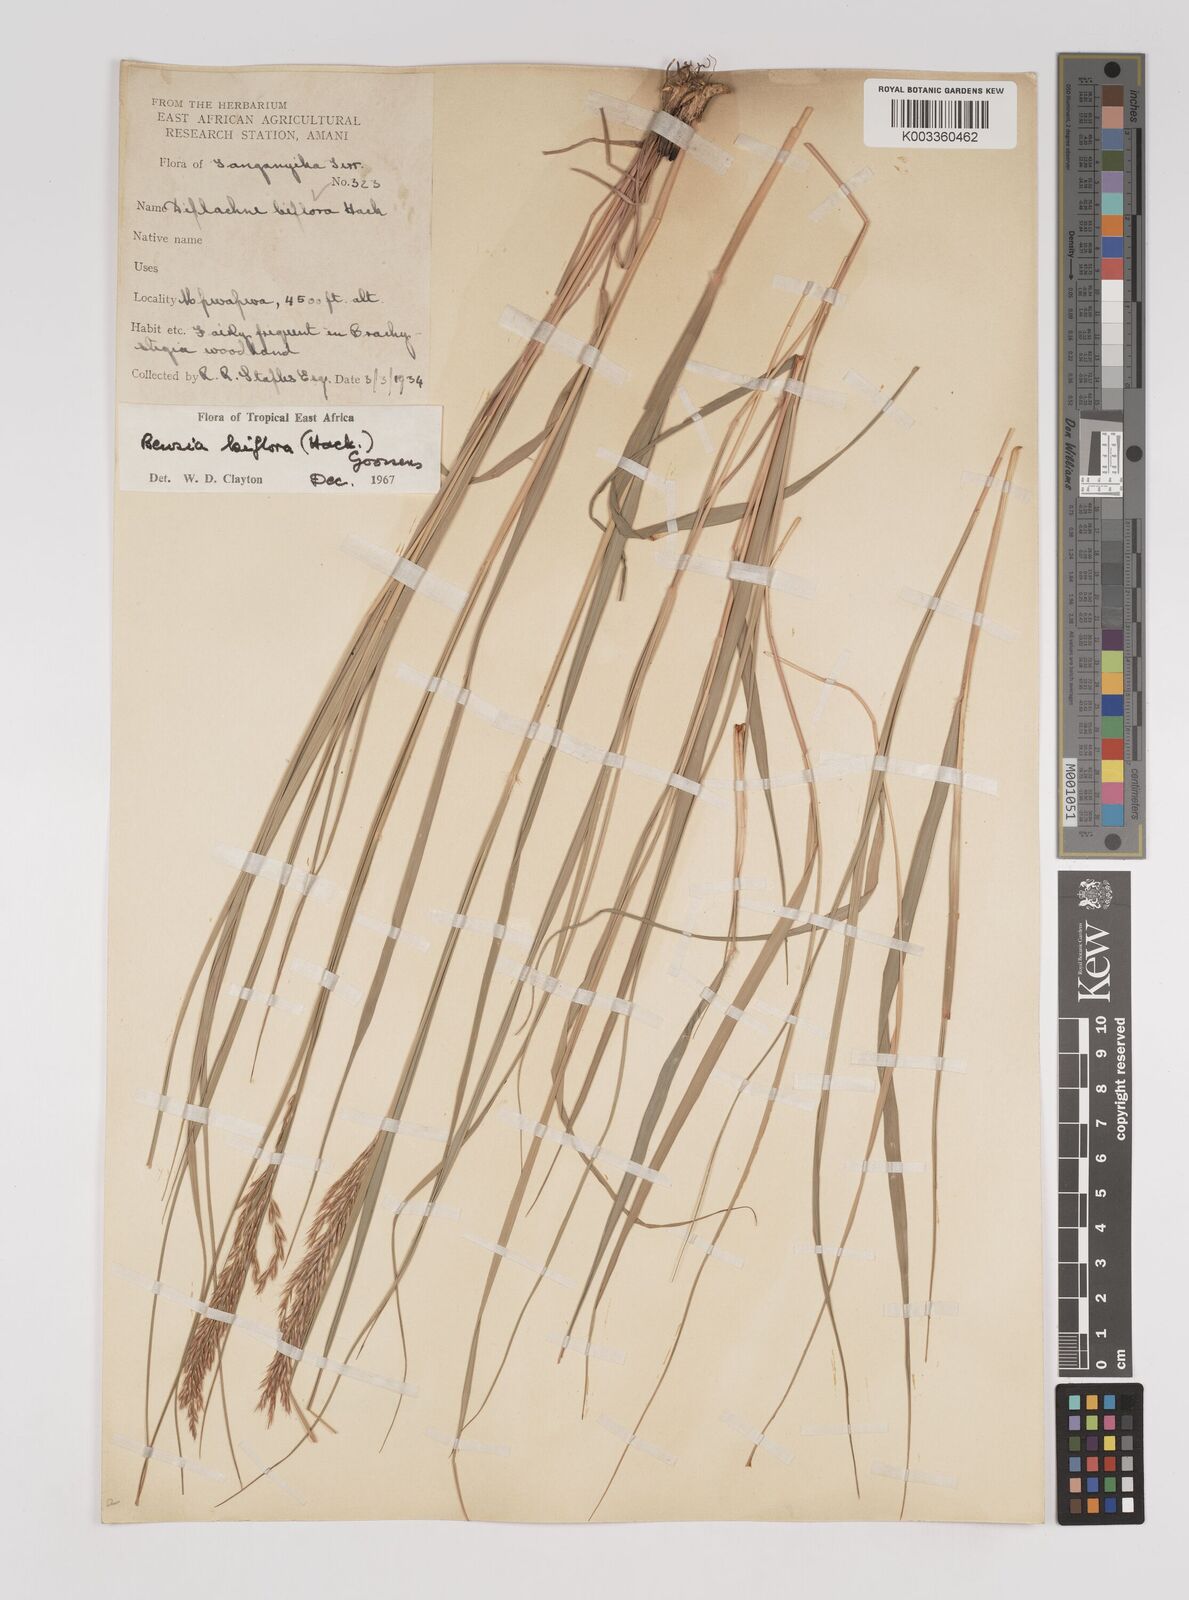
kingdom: Plantae
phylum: Tracheophyta
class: Liliopsida
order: Poales
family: Poaceae
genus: Bewsia
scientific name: Bewsia biflora
